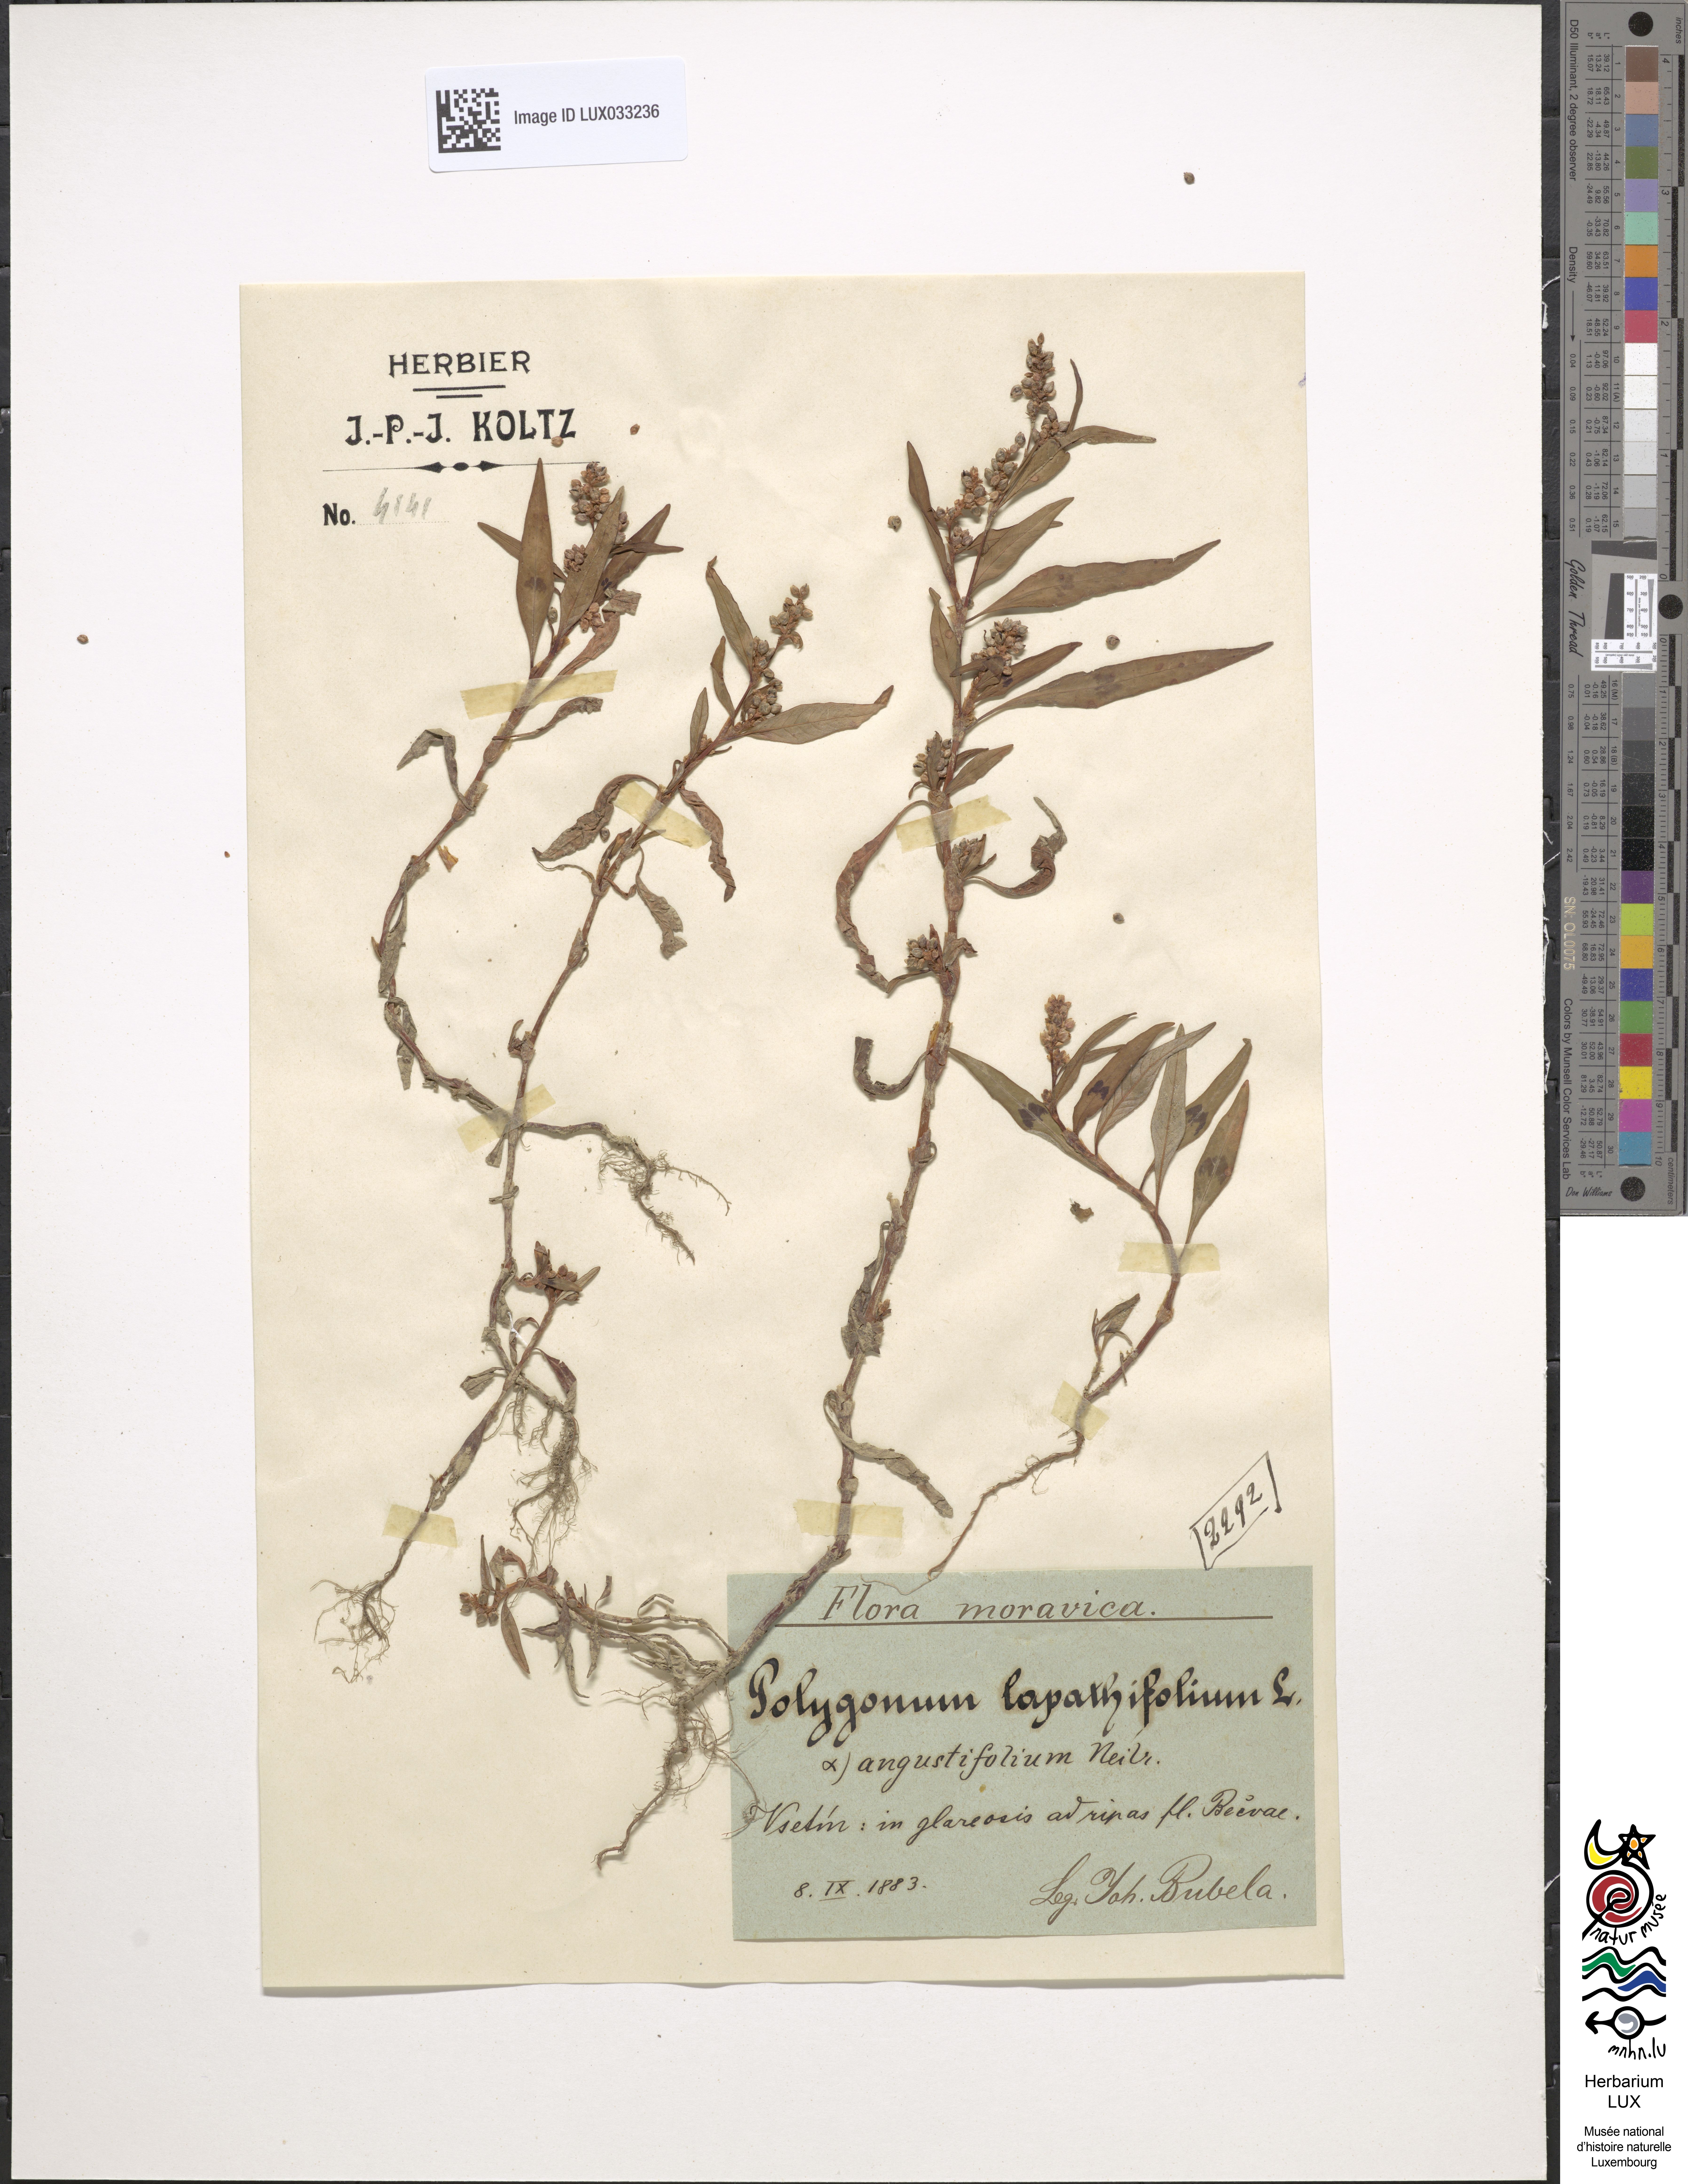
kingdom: Plantae
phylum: Tracheophyta
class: Magnoliopsida
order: Caryophyllales
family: Polygonaceae
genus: Persicaria
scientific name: Persicaria lapathifolia
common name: Curlytop knotweed
